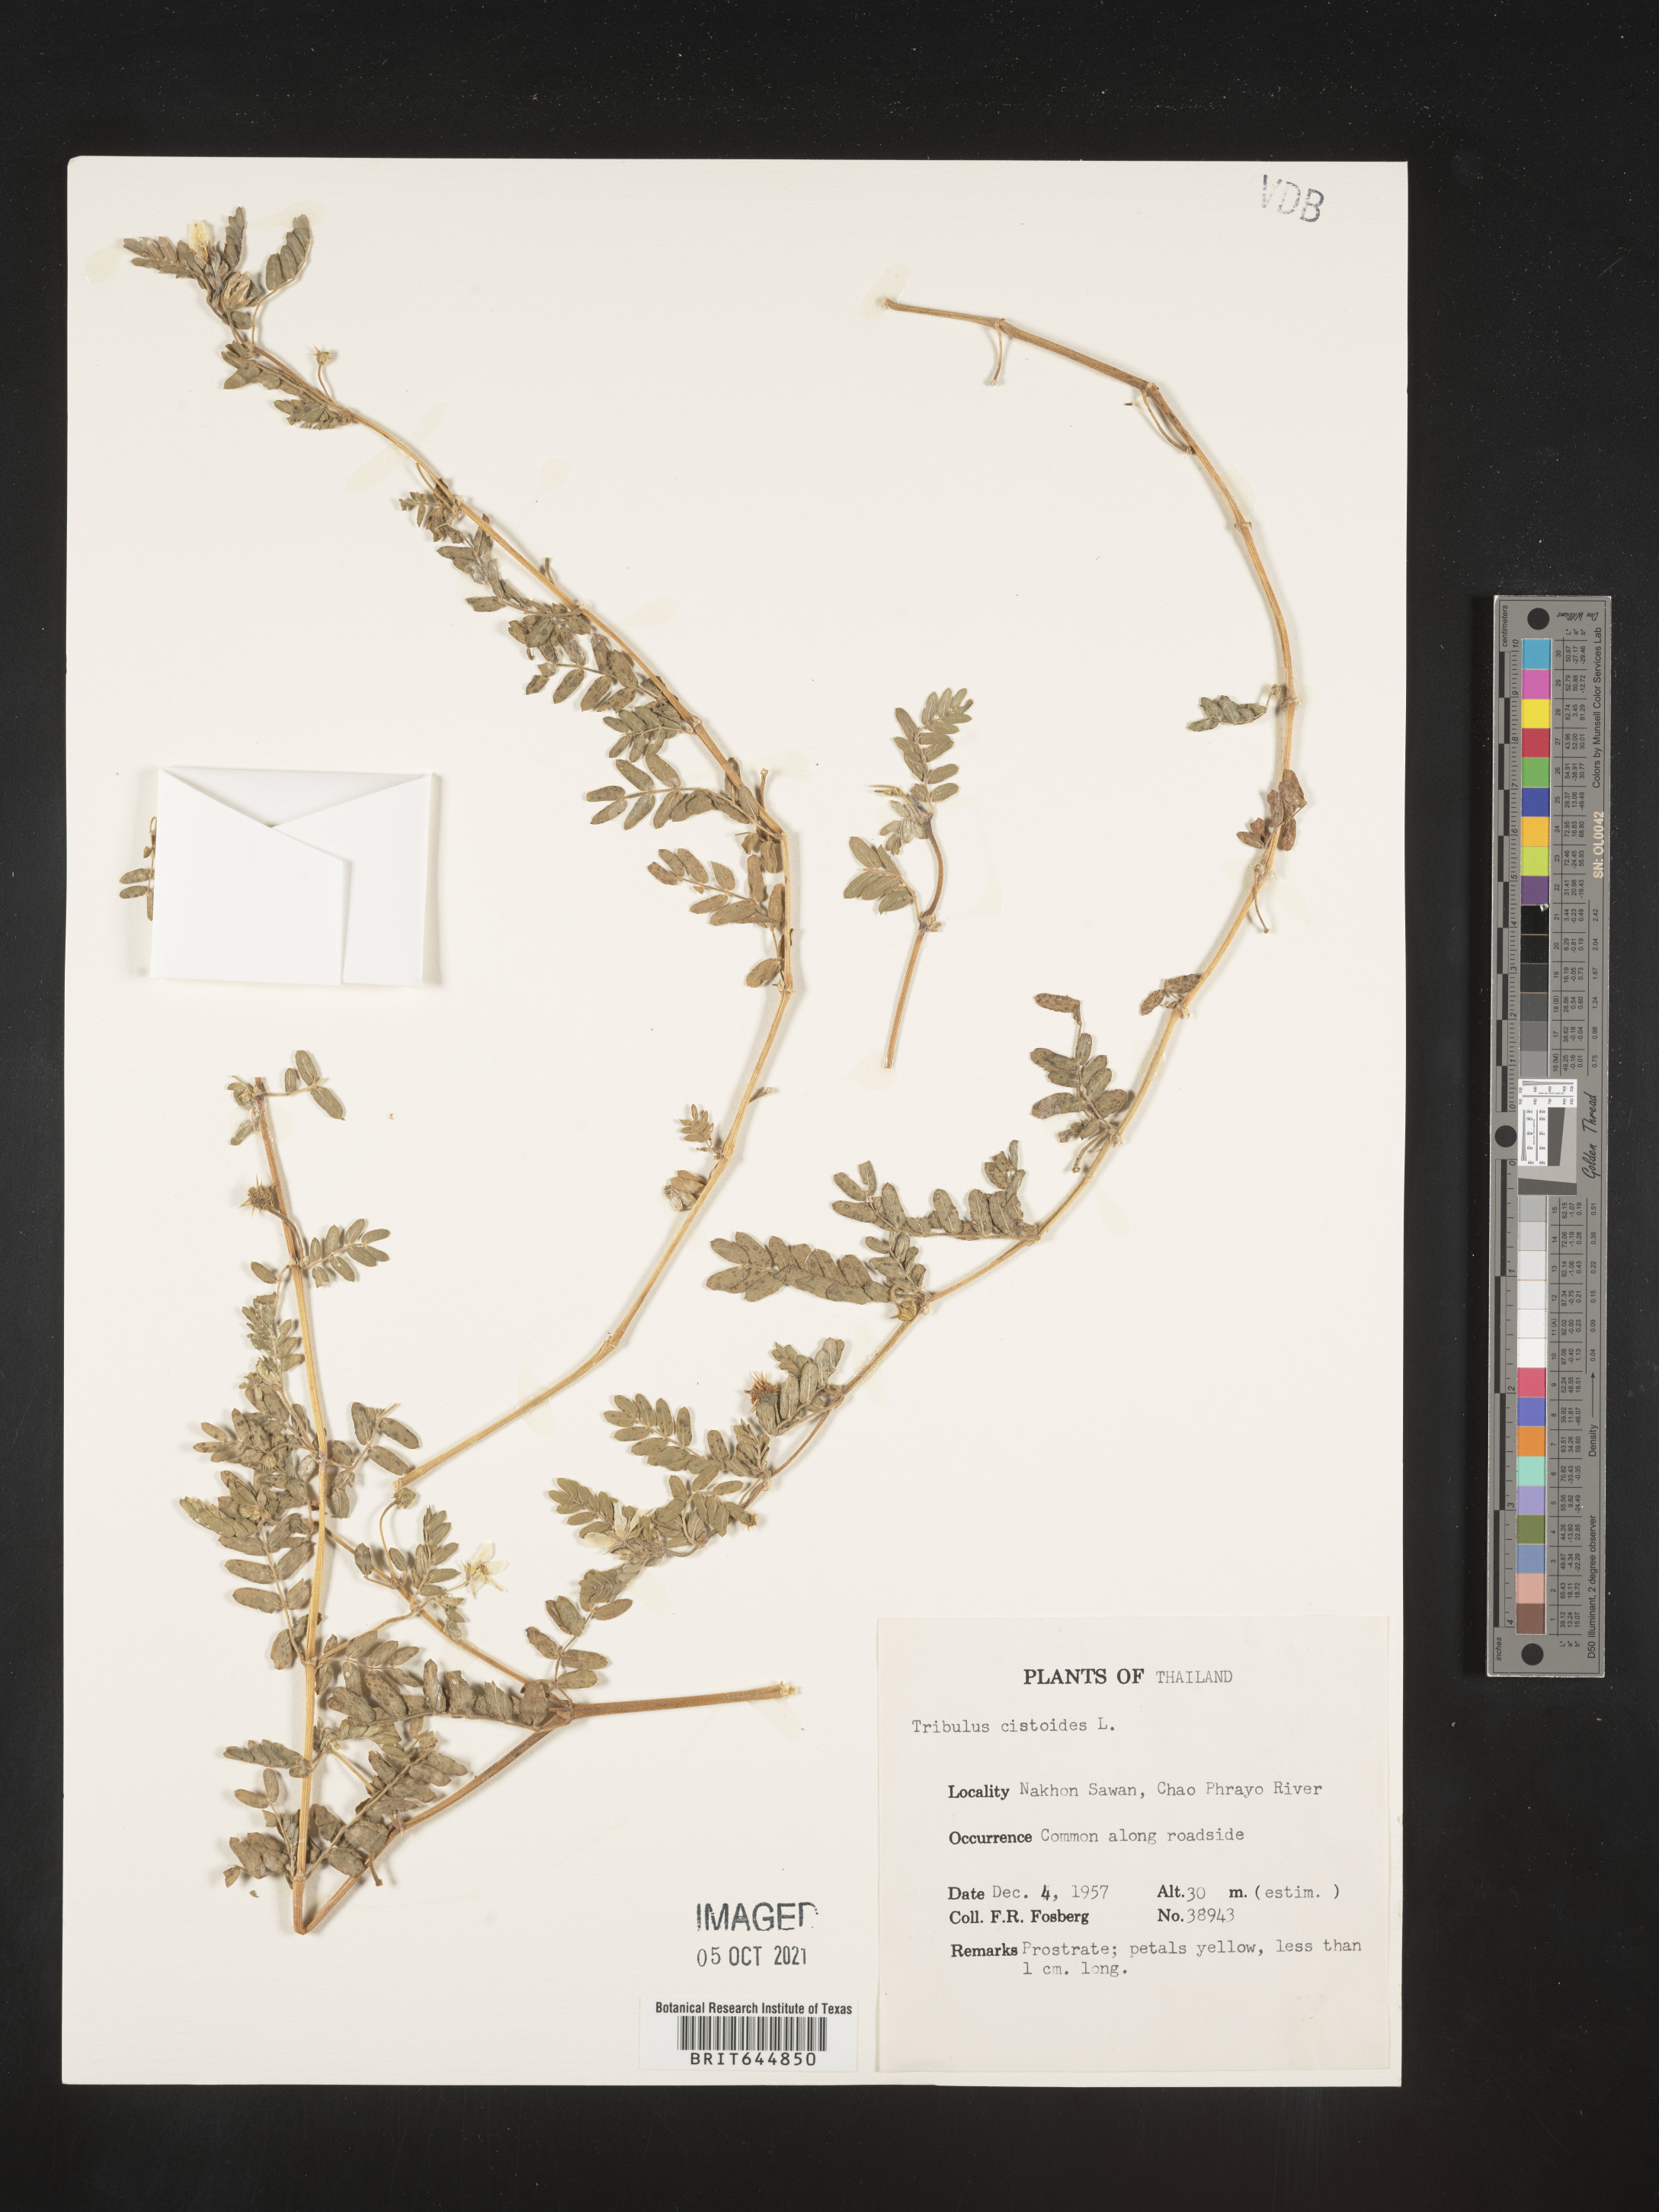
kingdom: Plantae
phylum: Tracheophyta
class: Magnoliopsida
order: Zygophyllales
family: Zygophyllaceae
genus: Tribulus
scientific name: Tribulus
